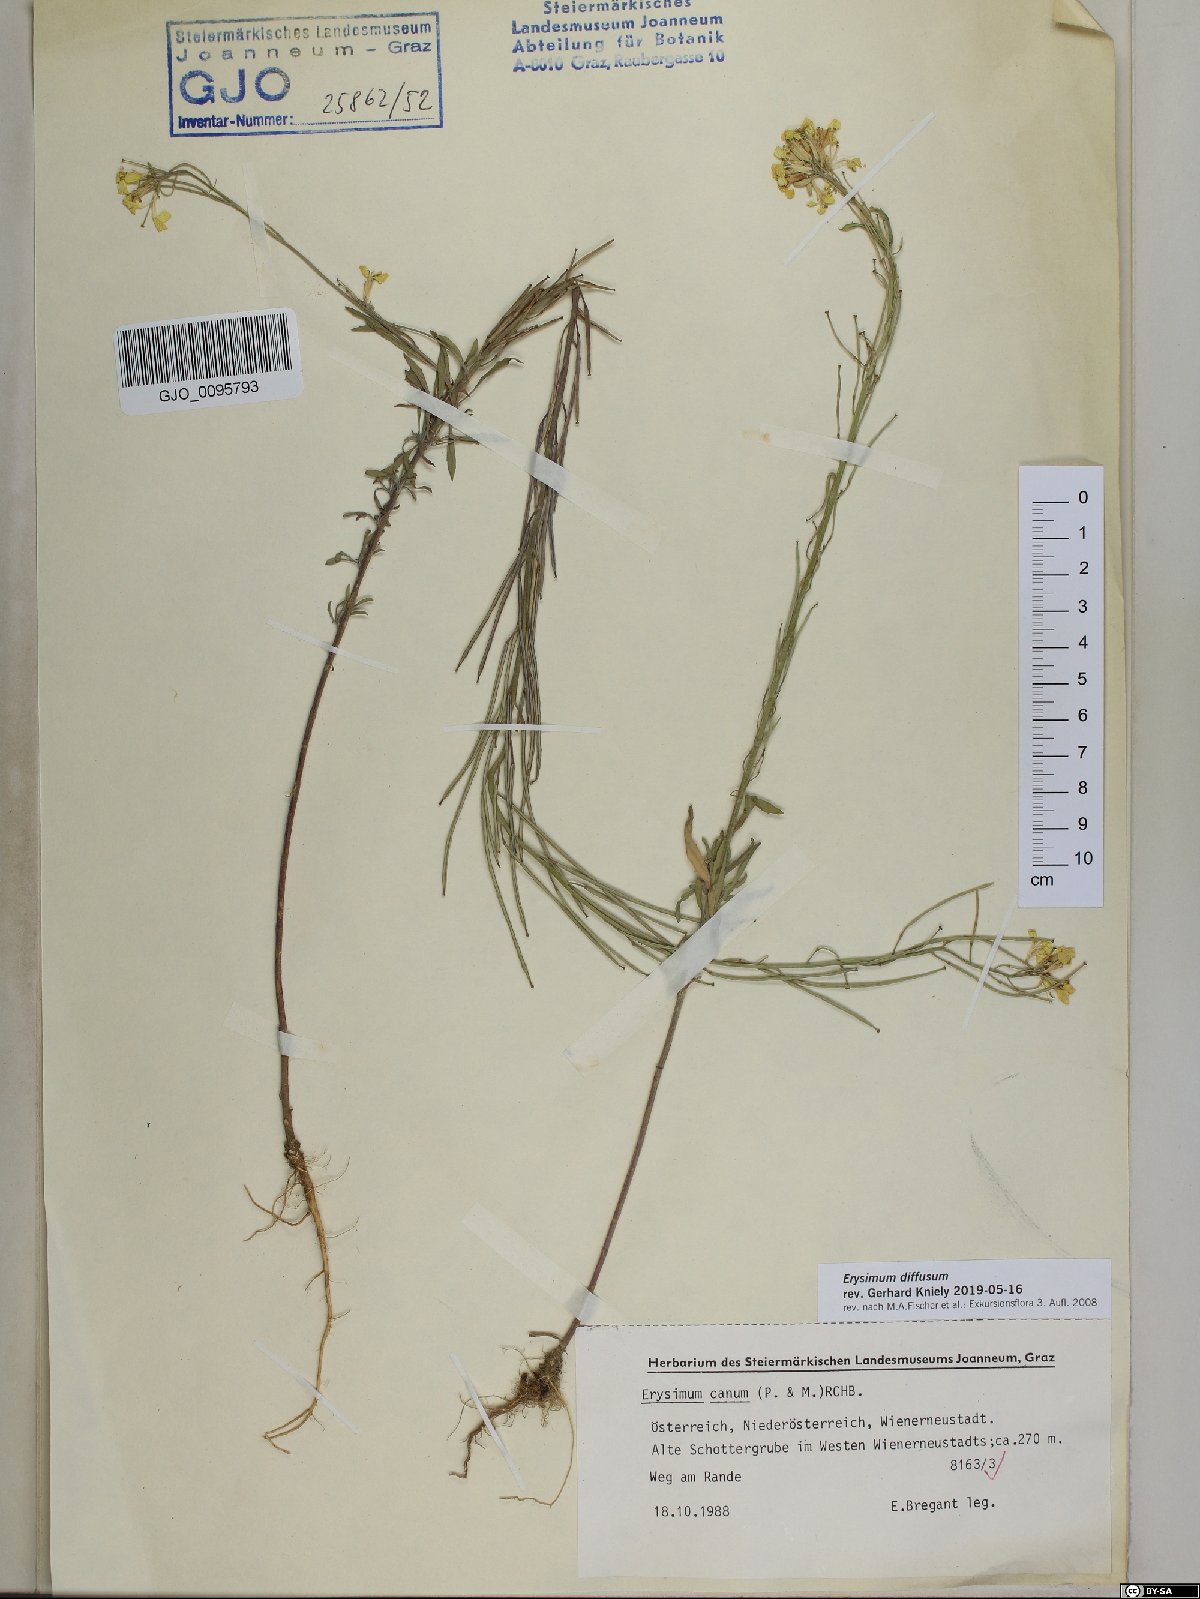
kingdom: Plantae
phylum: Tracheophyta
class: Magnoliopsida
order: Brassicales
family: Brassicaceae
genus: Erysimum
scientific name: Erysimum diffusum
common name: Diffuse wallflower
